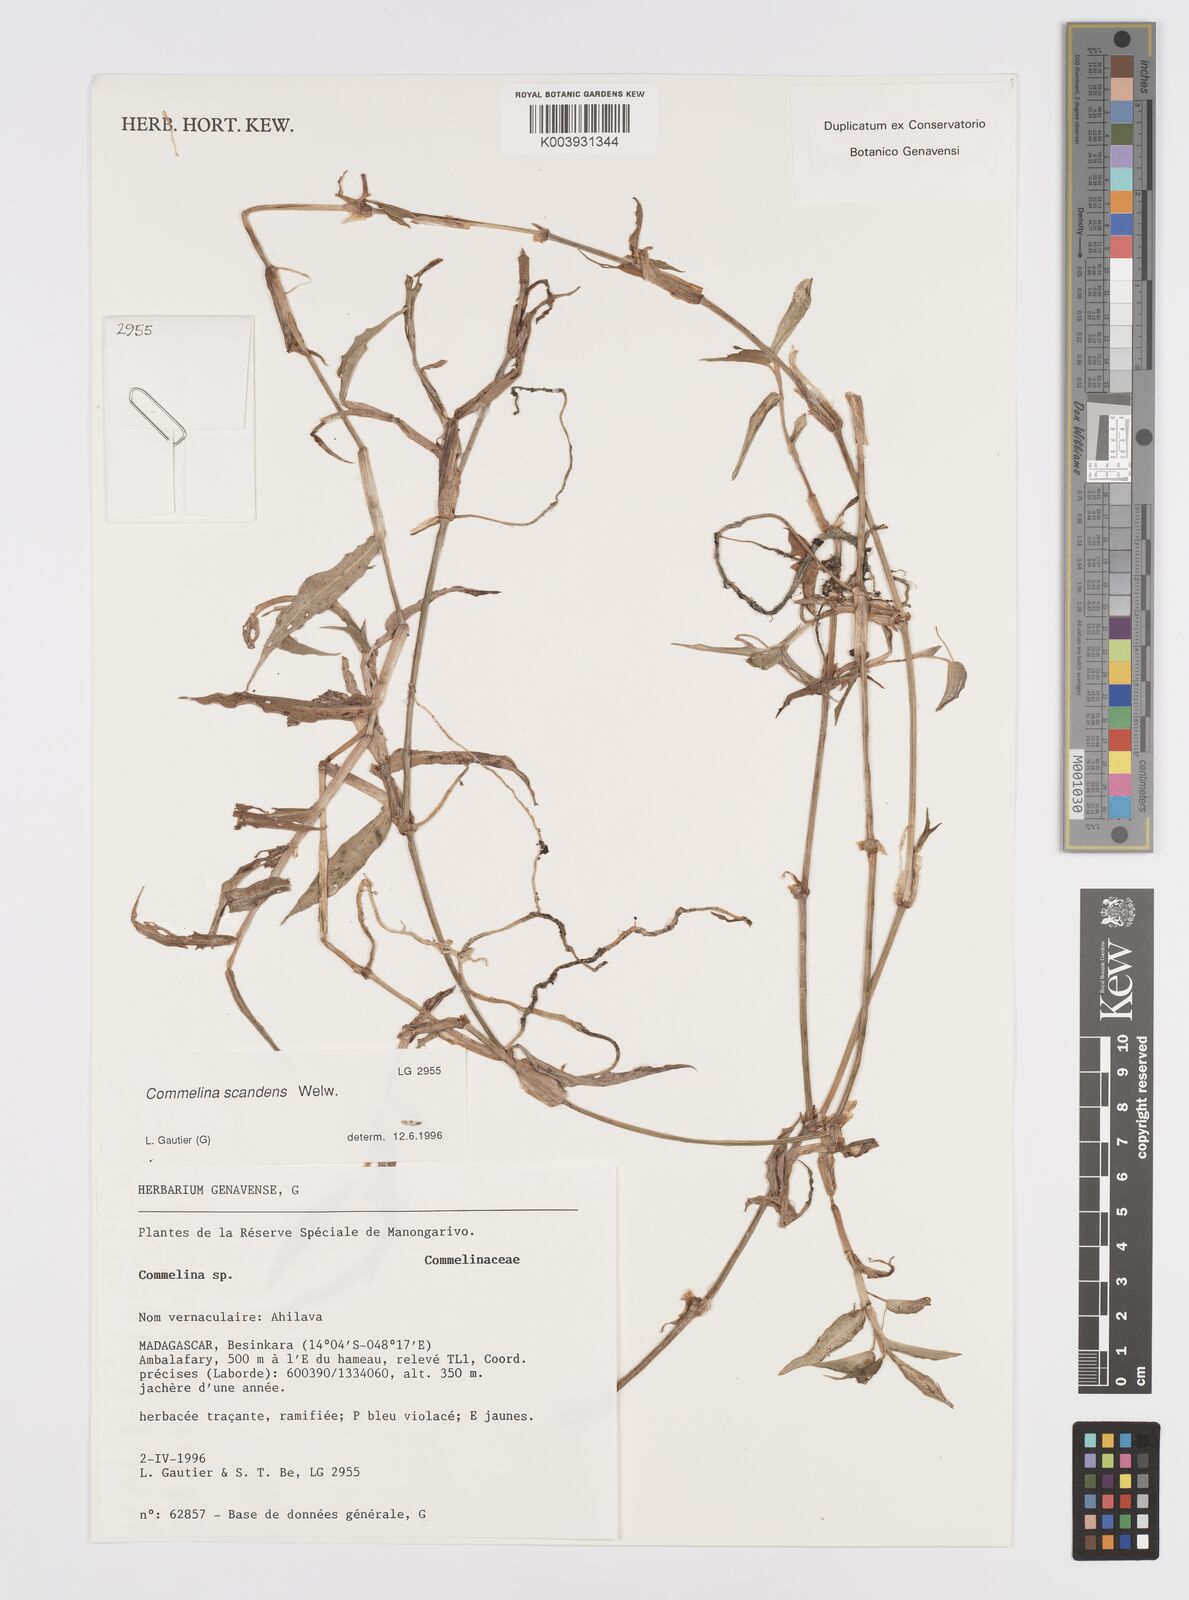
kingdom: Plantae
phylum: Tracheophyta
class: Liliopsida
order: Commelinales
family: Commelinaceae
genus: Commelina
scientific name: Commelina scandens
